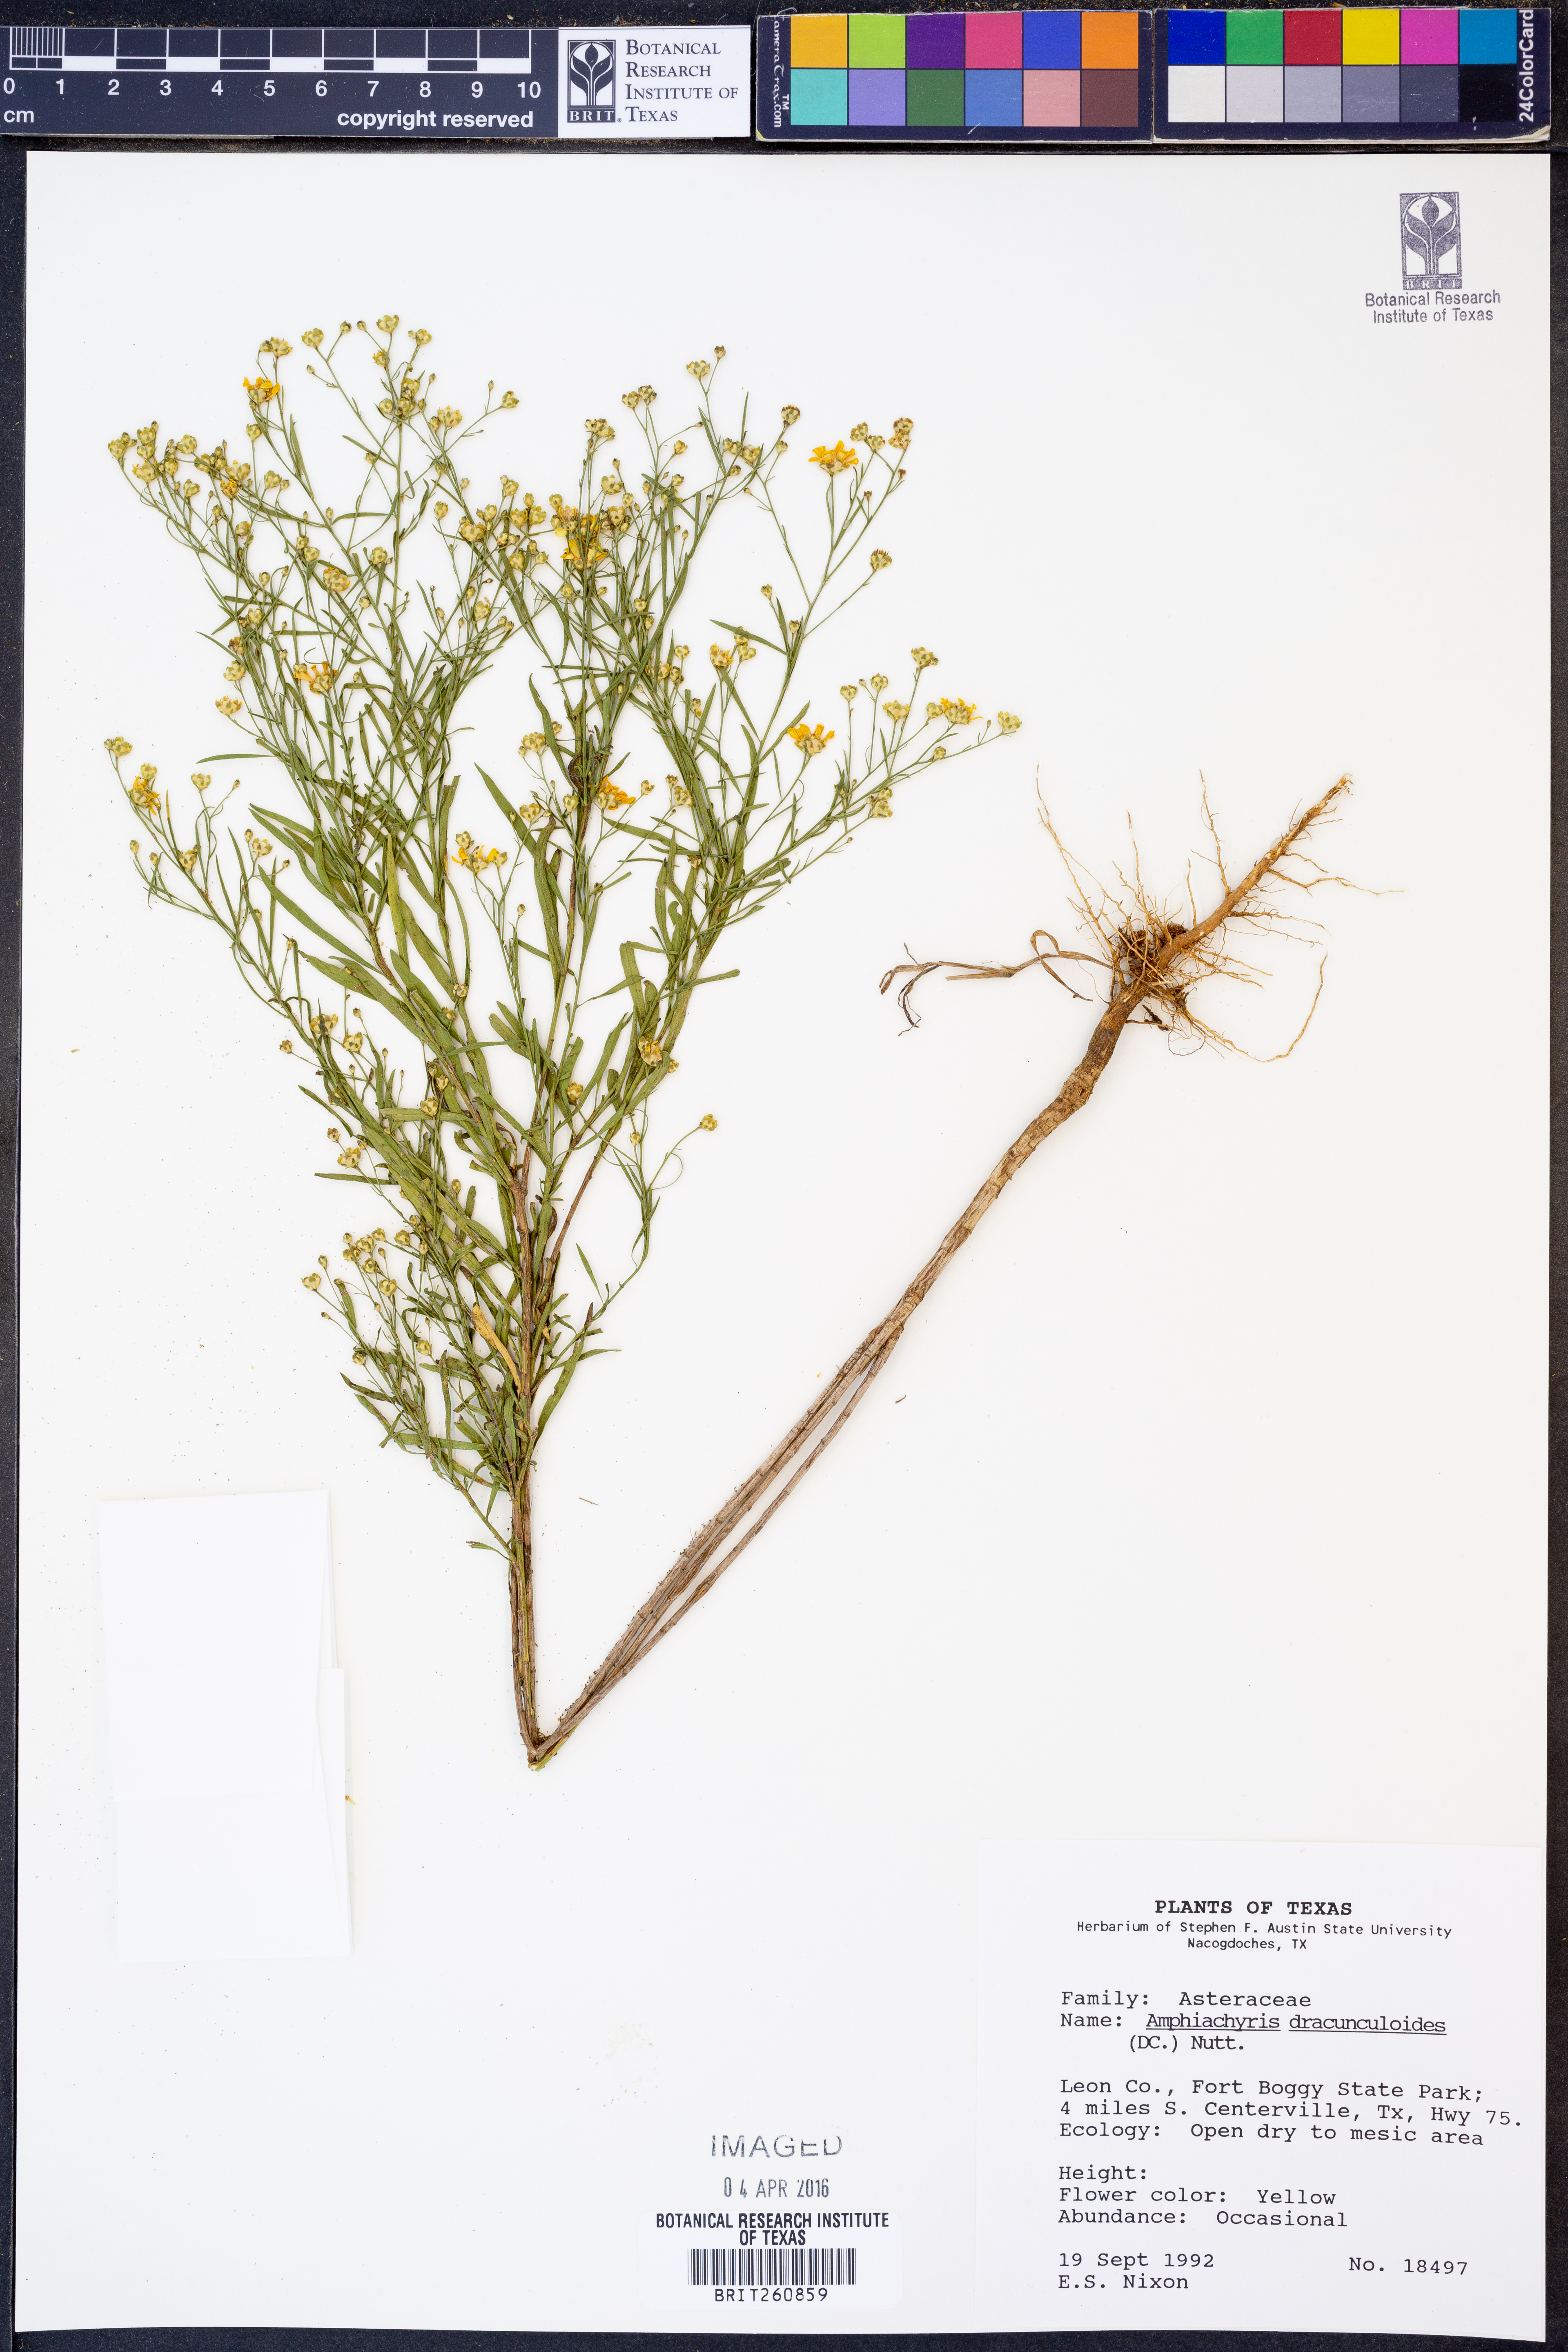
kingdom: Plantae
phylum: Tracheophyta
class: Magnoliopsida
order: Asterales
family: Asteraceae
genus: Amphiachyris
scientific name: Amphiachyris dracunculoides
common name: Broomweed
